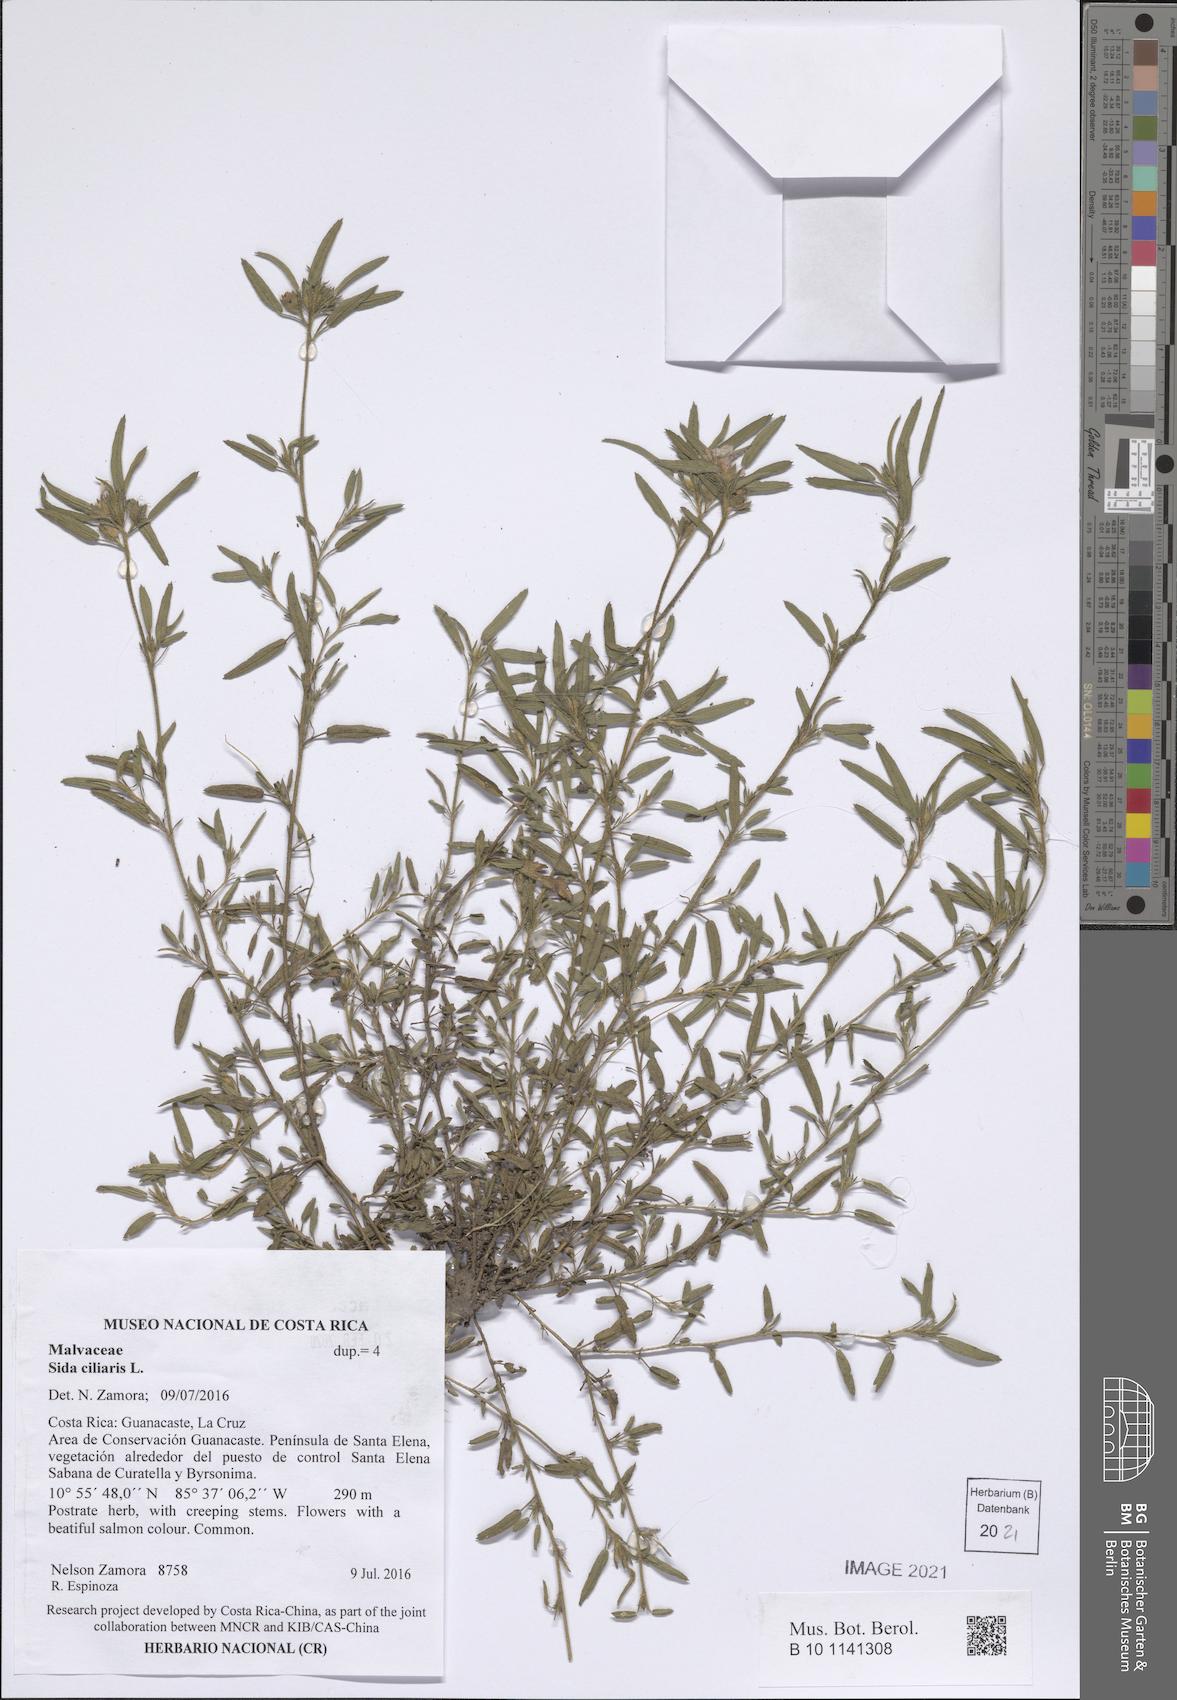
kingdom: Plantae
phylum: Tracheophyta
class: Magnoliopsida
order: Malvales
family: Malvaceae
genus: Sida
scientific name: Sida ciliaris
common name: Bracted fanpetals
